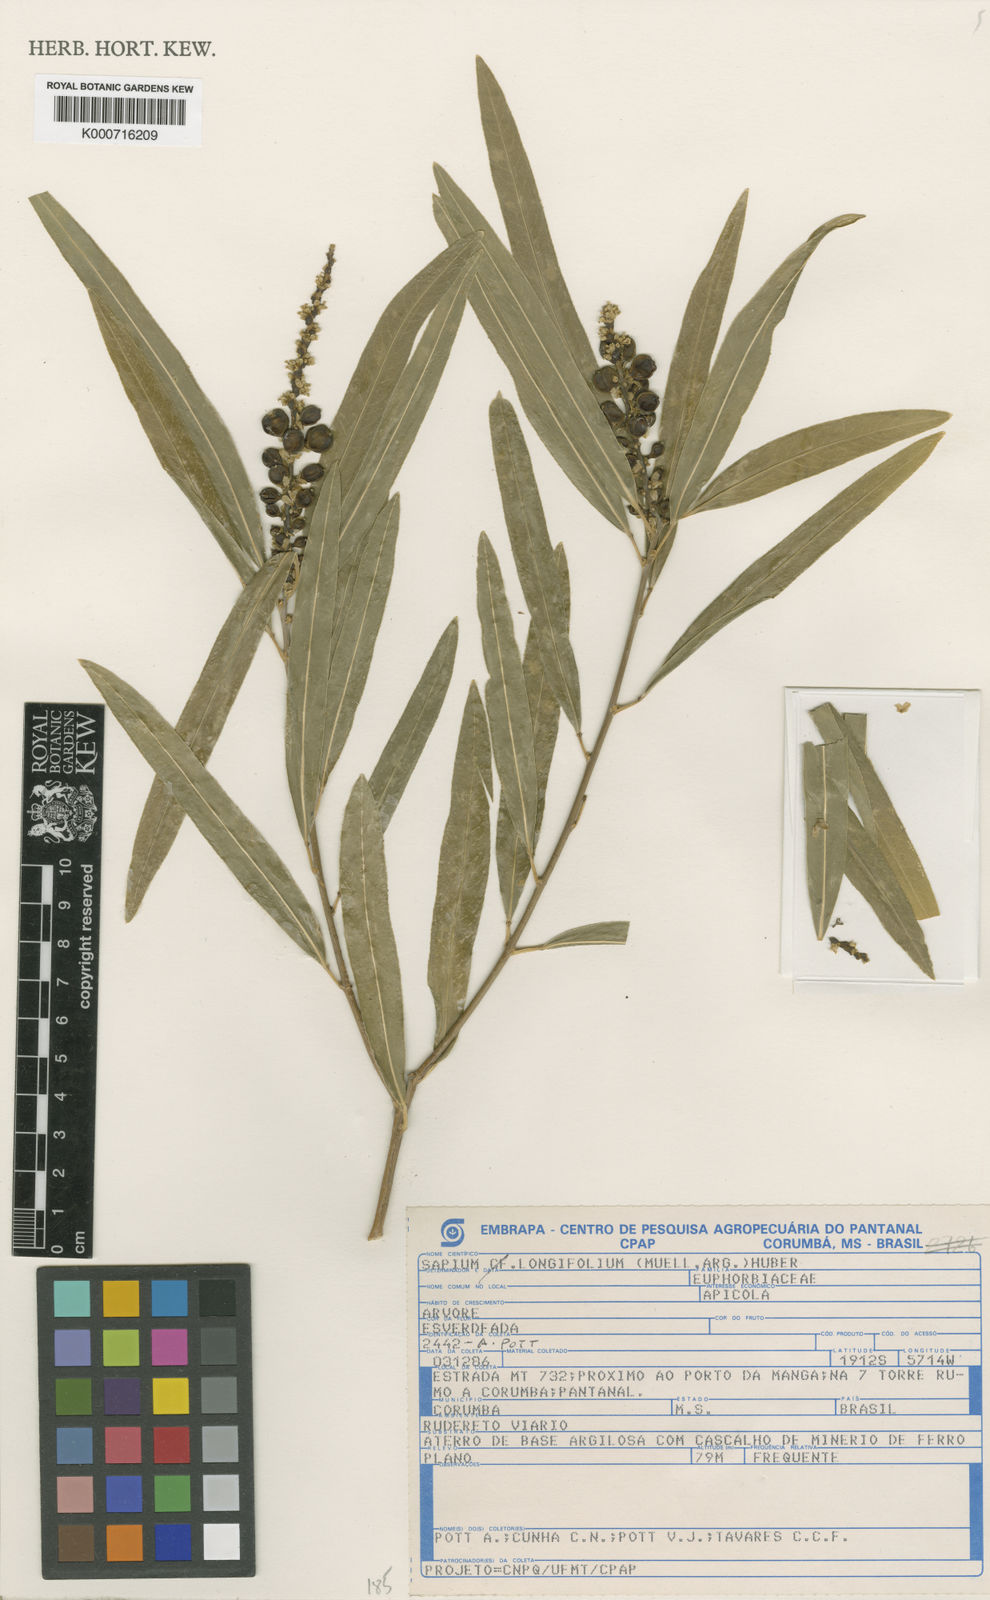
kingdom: Plantae
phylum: Tracheophyta
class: Magnoliopsida
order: Malpighiales
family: Euphorbiaceae
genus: Sapium
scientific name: Sapium
